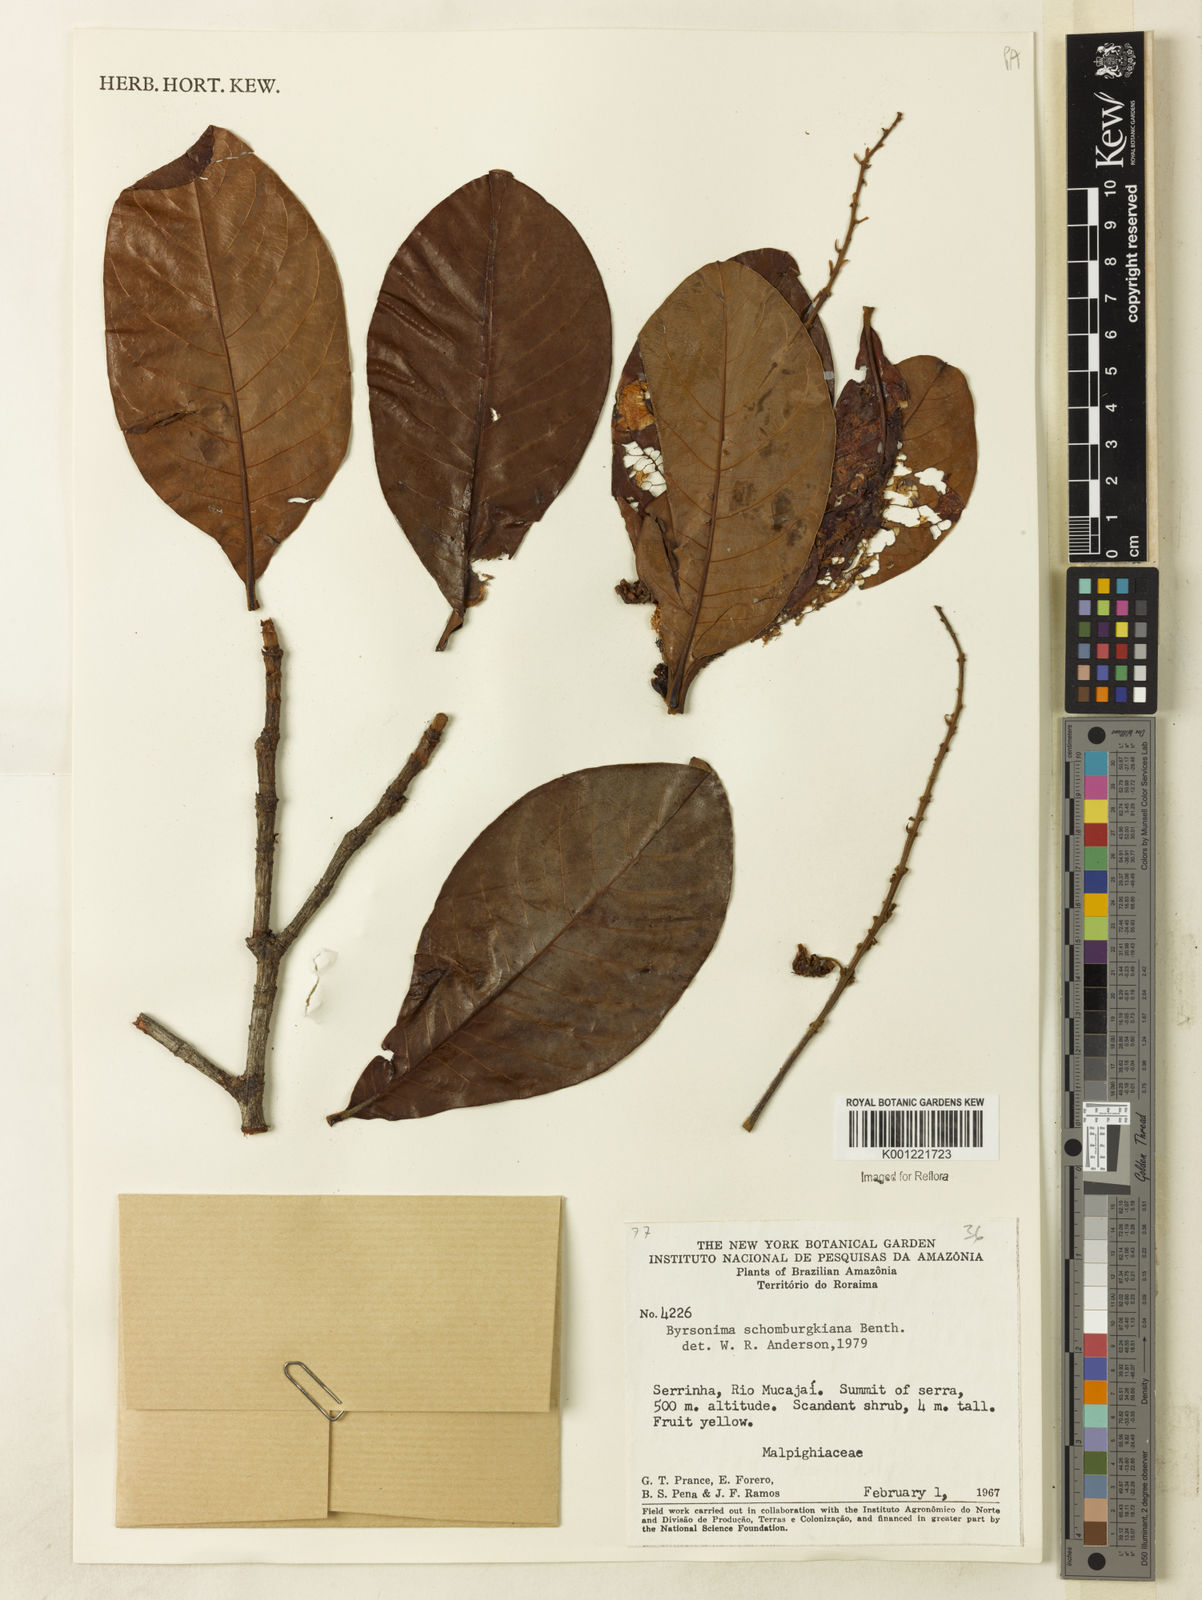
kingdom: Plantae
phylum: Tracheophyta
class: Magnoliopsida
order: Malpighiales
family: Malpighiaceae
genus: Byrsonima
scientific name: Byrsonima schomburgkiana
